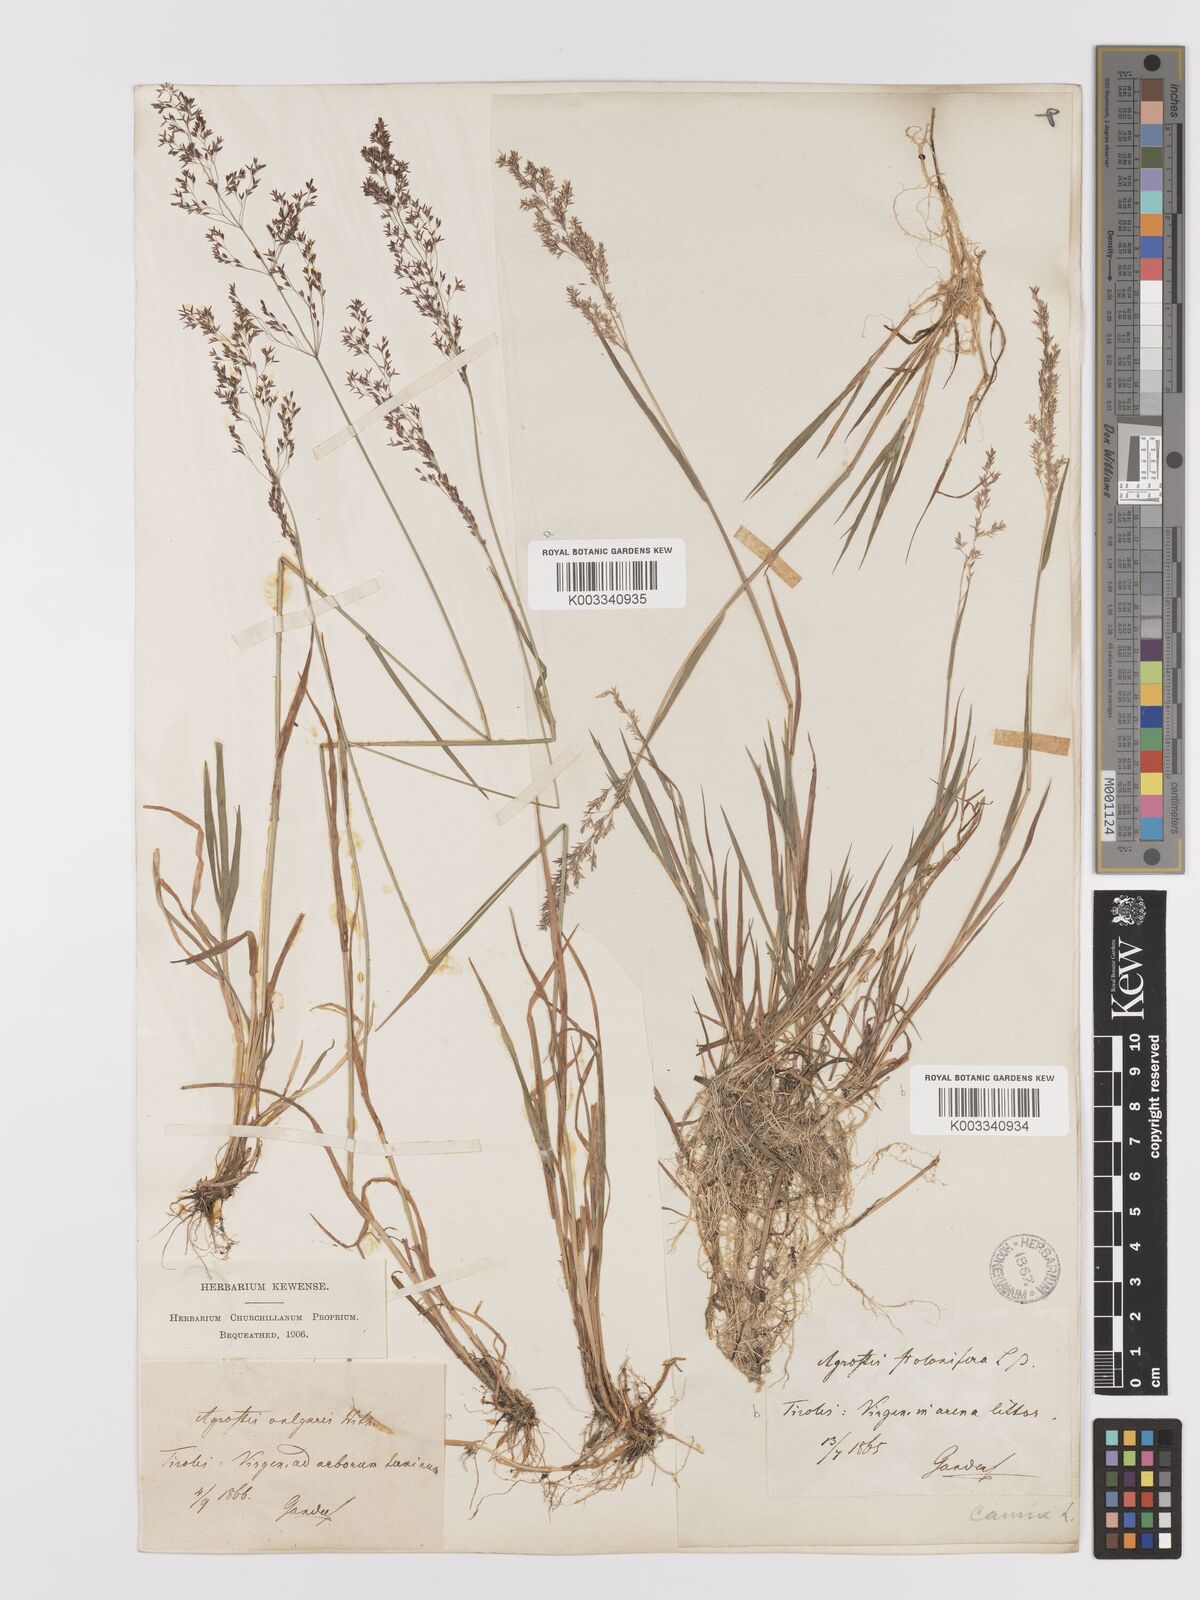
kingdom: Plantae
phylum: Tracheophyta
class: Liliopsida
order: Poales
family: Poaceae
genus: Agrostis
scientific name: Agrostis capillaris
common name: Colonial bentgrass
